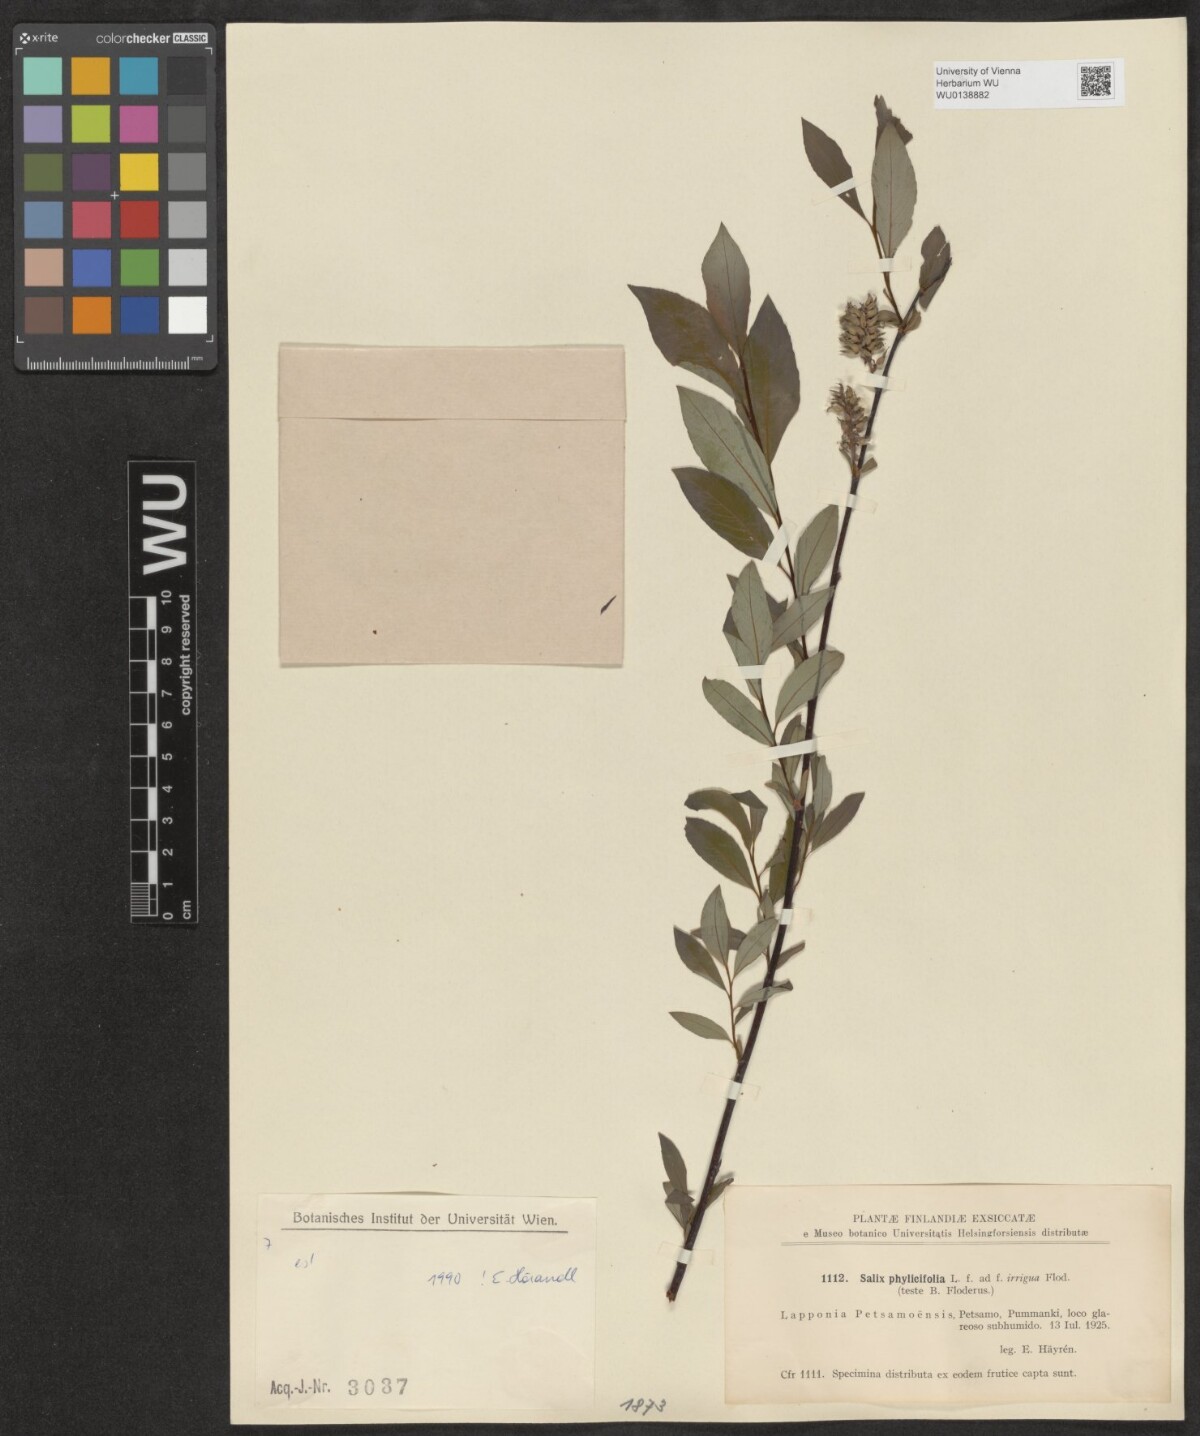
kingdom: Plantae
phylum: Tracheophyta
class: Magnoliopsida
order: Malpighiales
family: Salicaceae
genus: Salix
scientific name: Salix phylicifolia
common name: Tea-leaved willow
